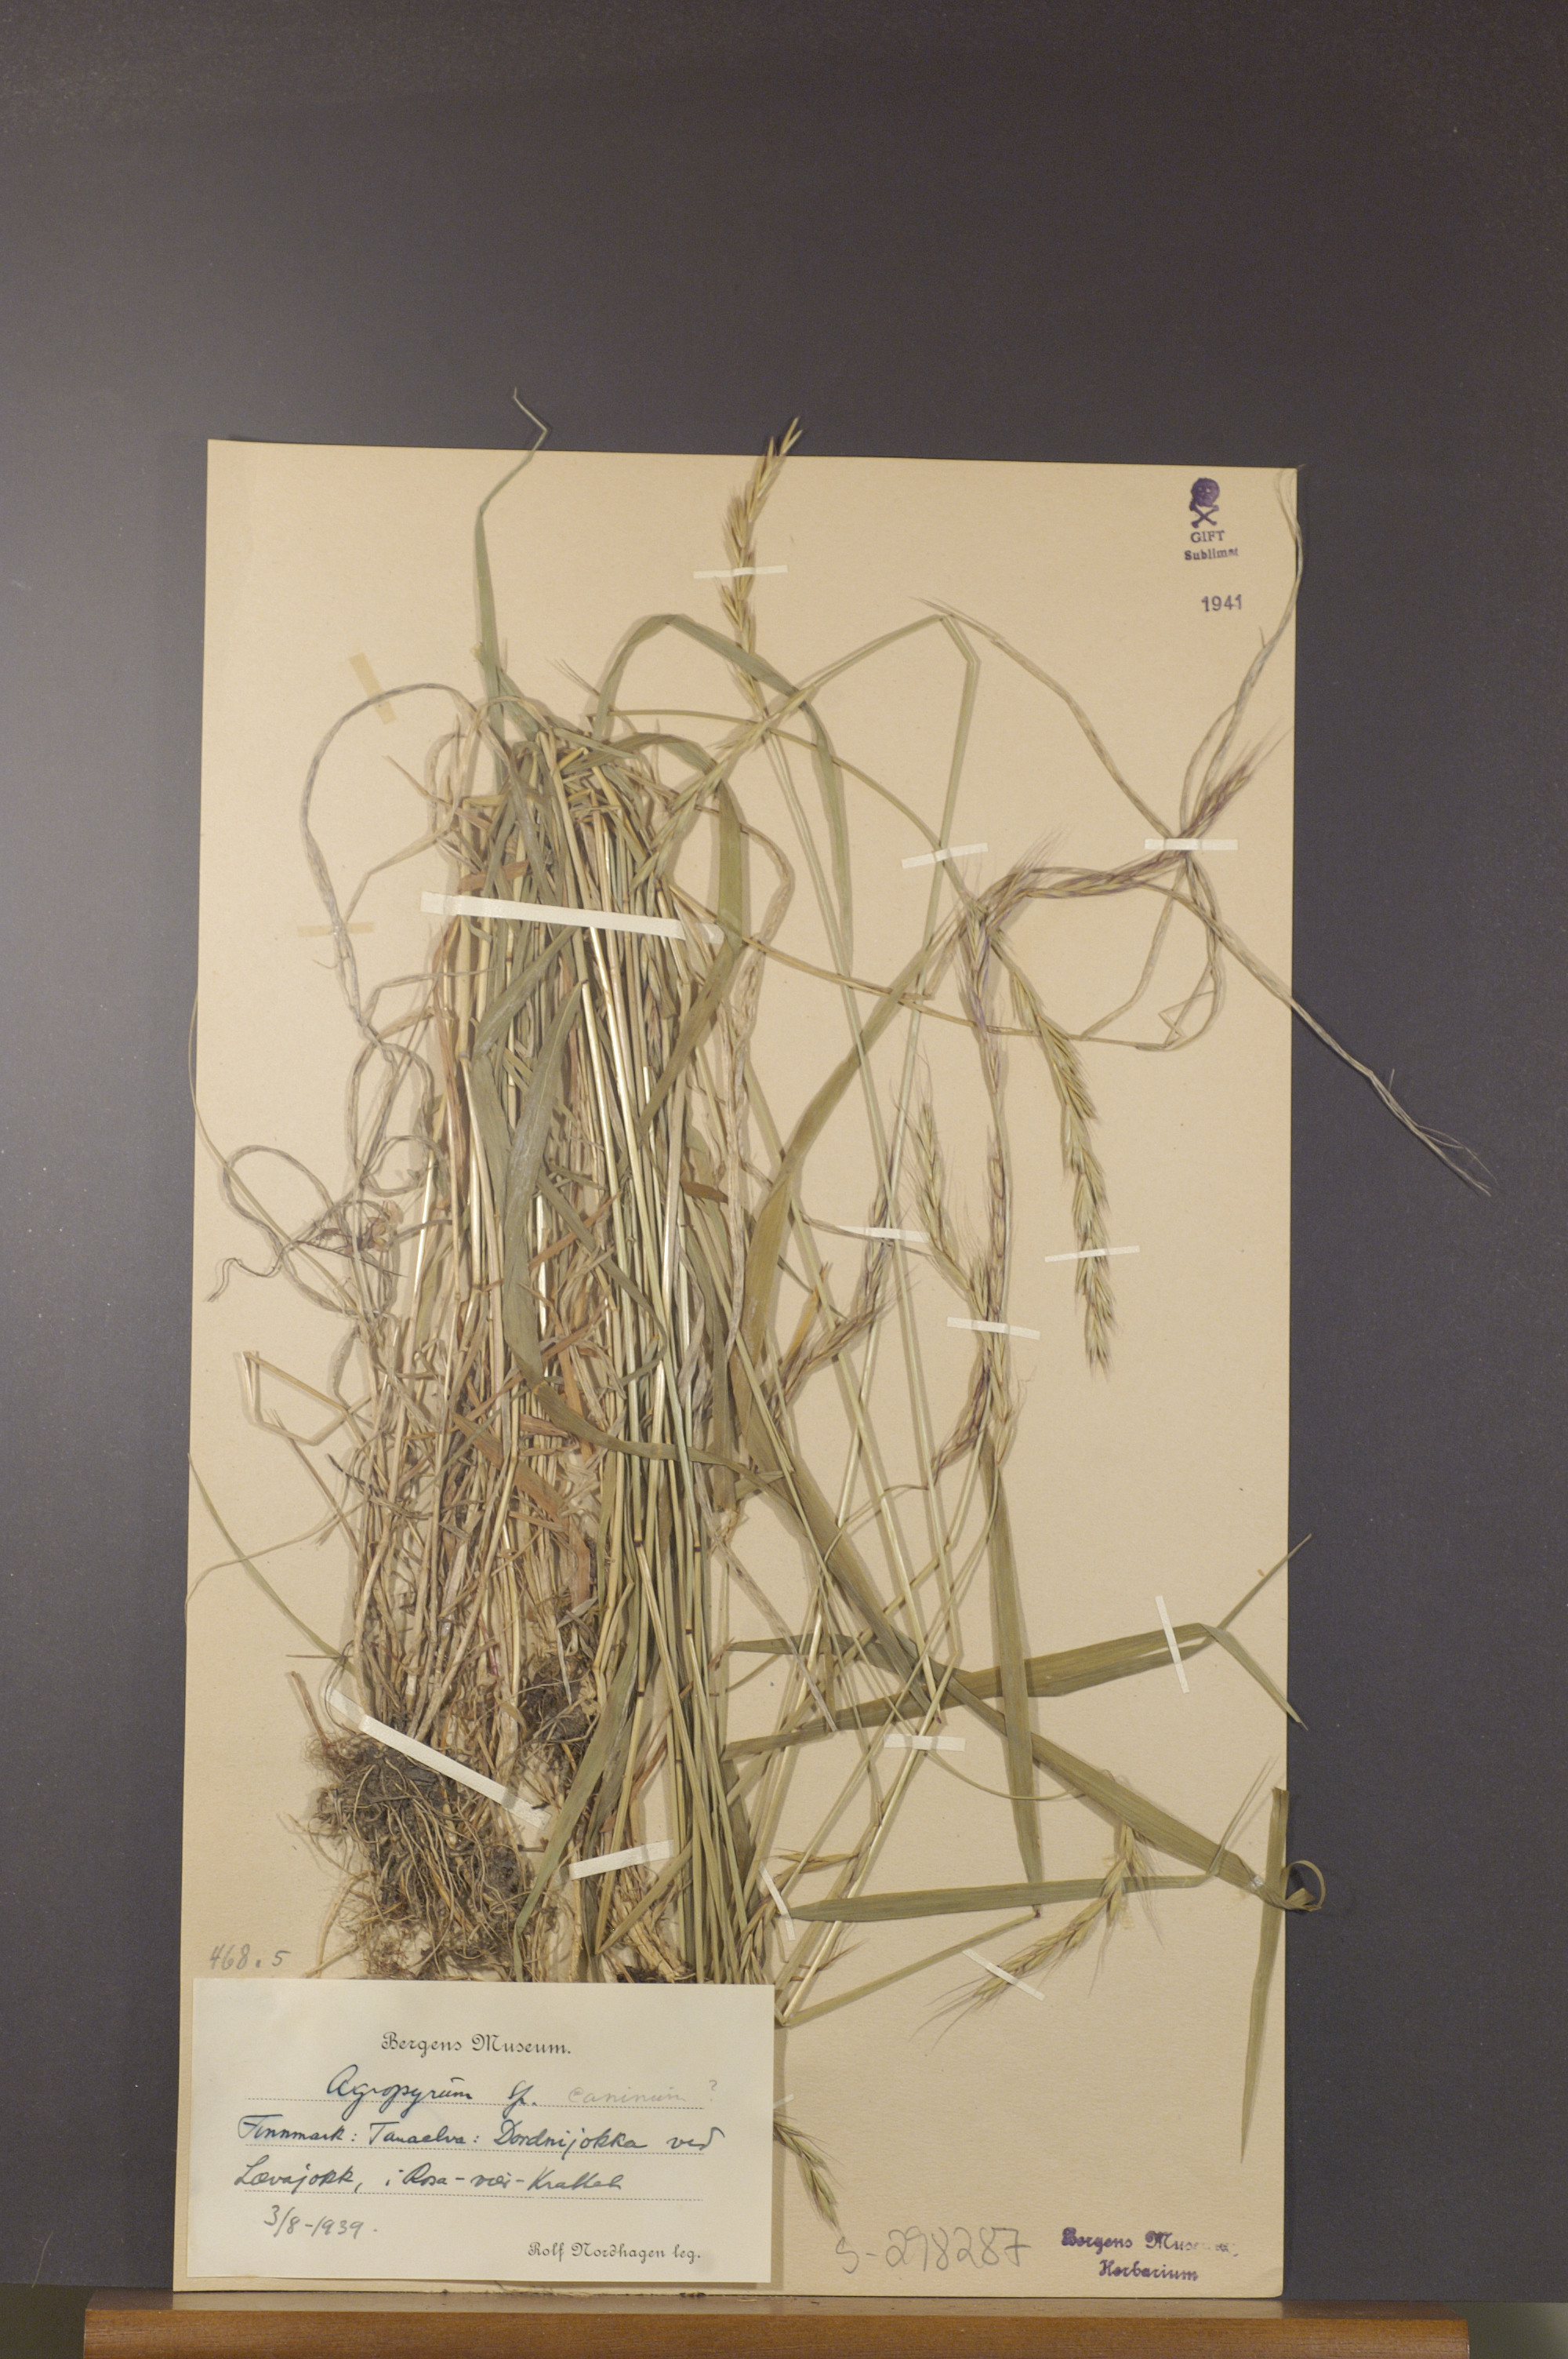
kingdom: Plantae
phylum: Tracheophyta
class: Liliopsida
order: Poales
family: Poaceae
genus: Elymus
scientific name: Elymus caninus
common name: Bearded couch
